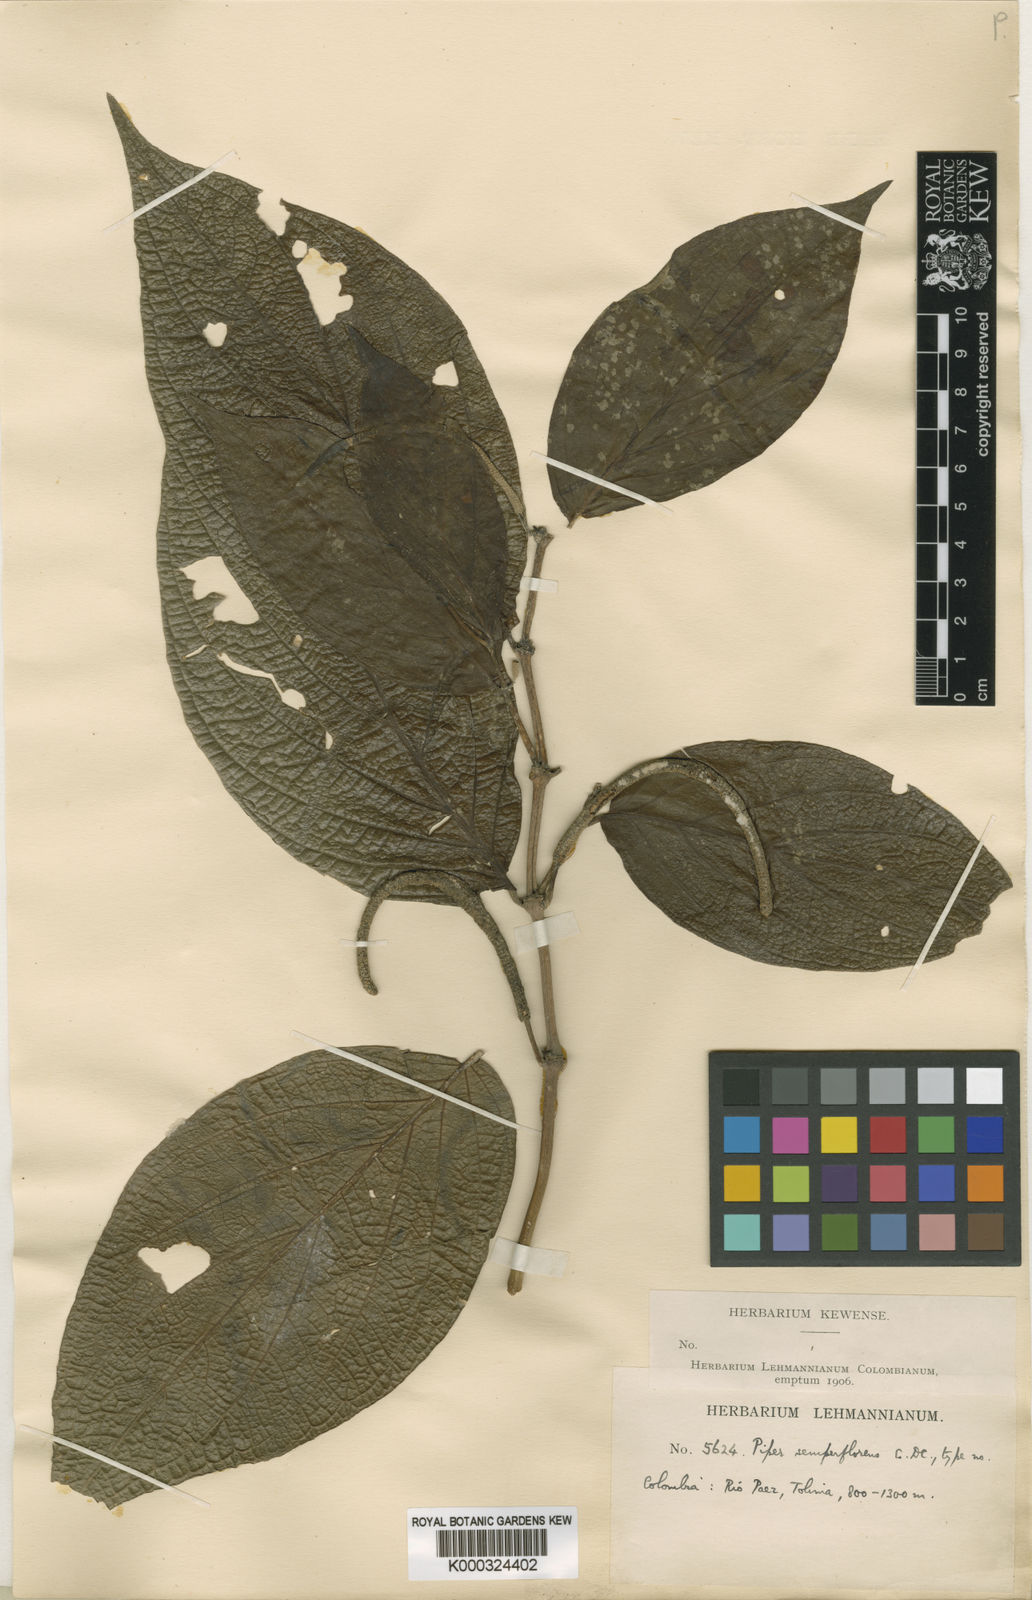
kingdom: Plantae
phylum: Tracheophyta
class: Magnoliopsida
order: Piperales
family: Piperaceae
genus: Piper
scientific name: Piper semperflorens
